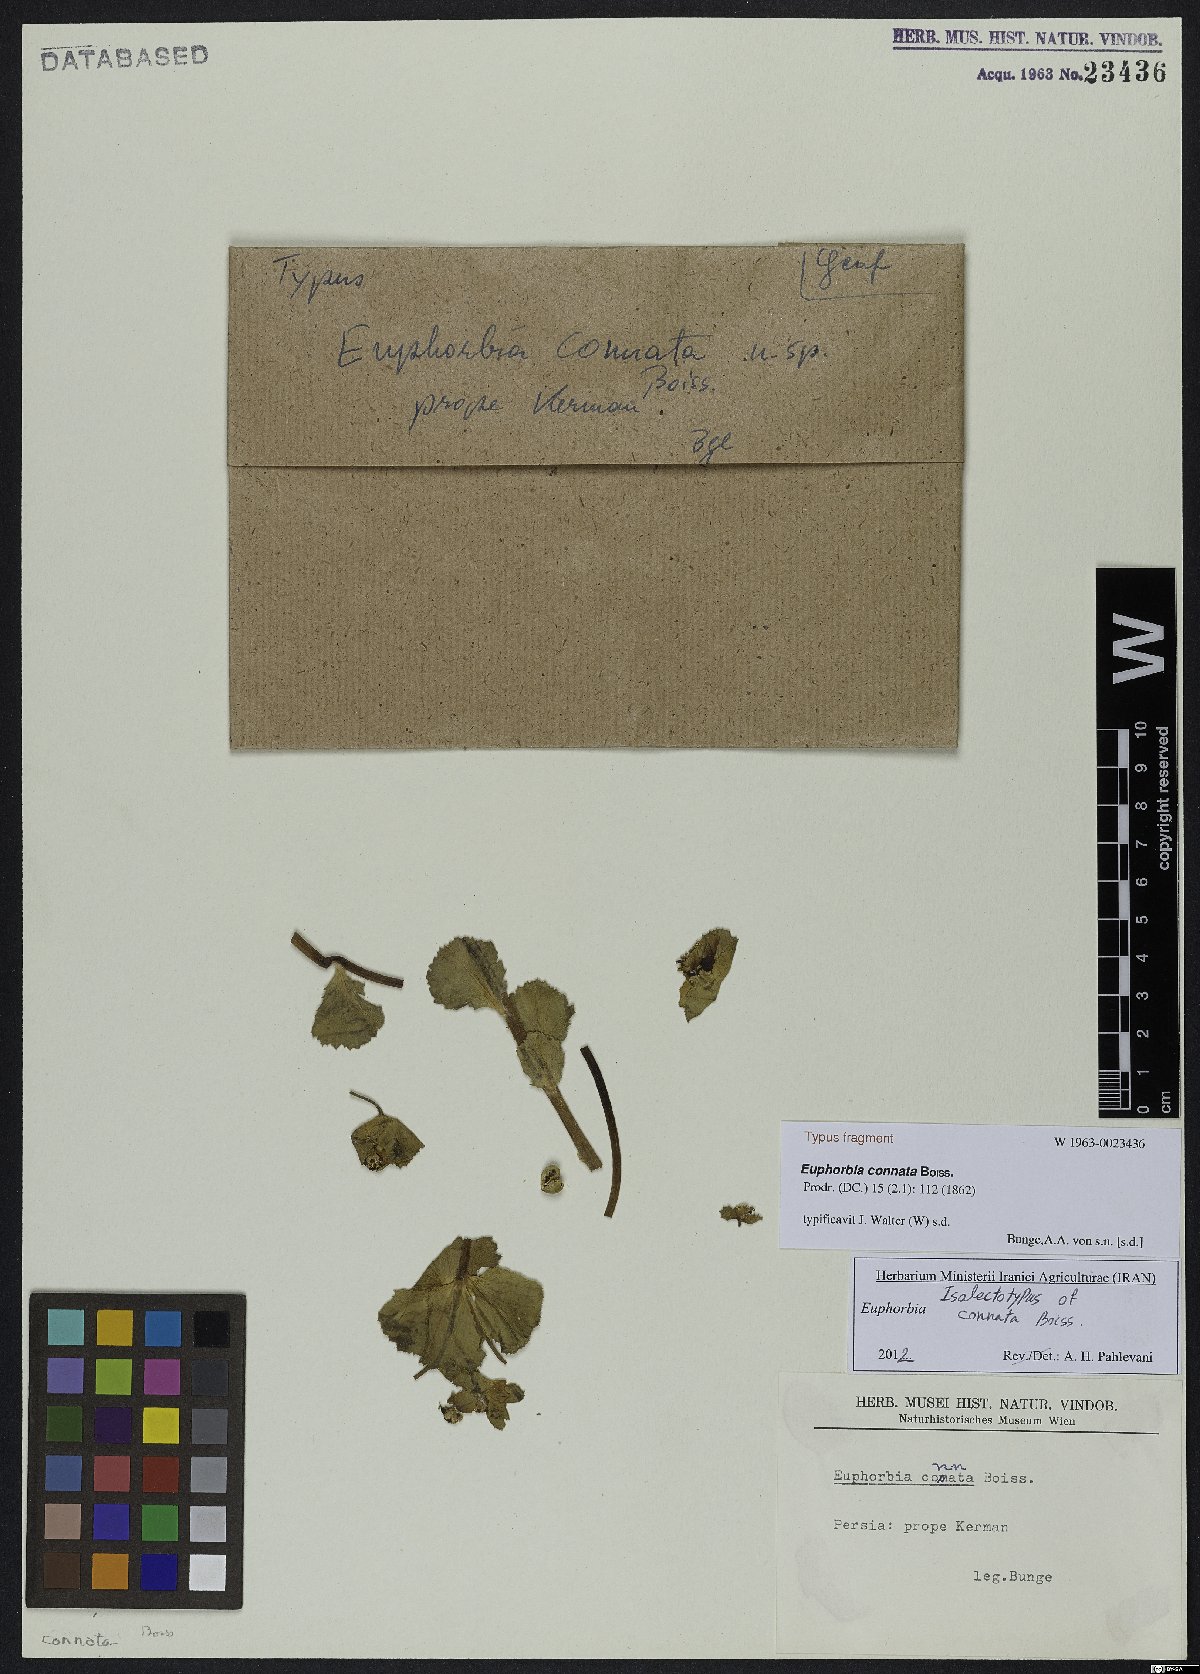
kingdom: Plantae
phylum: Tracheophyta
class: Magnoliopsida
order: Malpighiales
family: Euphorbiaceae
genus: Euphorbia
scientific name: Euphorbia connata
